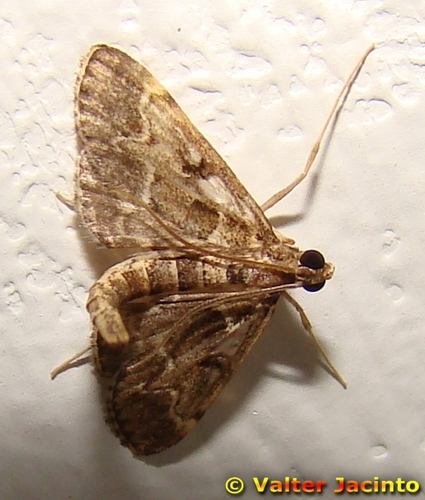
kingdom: Animalia
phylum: Arthropoda
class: Insecta
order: Lepidoptera
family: Crambidae
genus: Duponchelia
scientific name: Duponchelia fovealis
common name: Crambid moth
